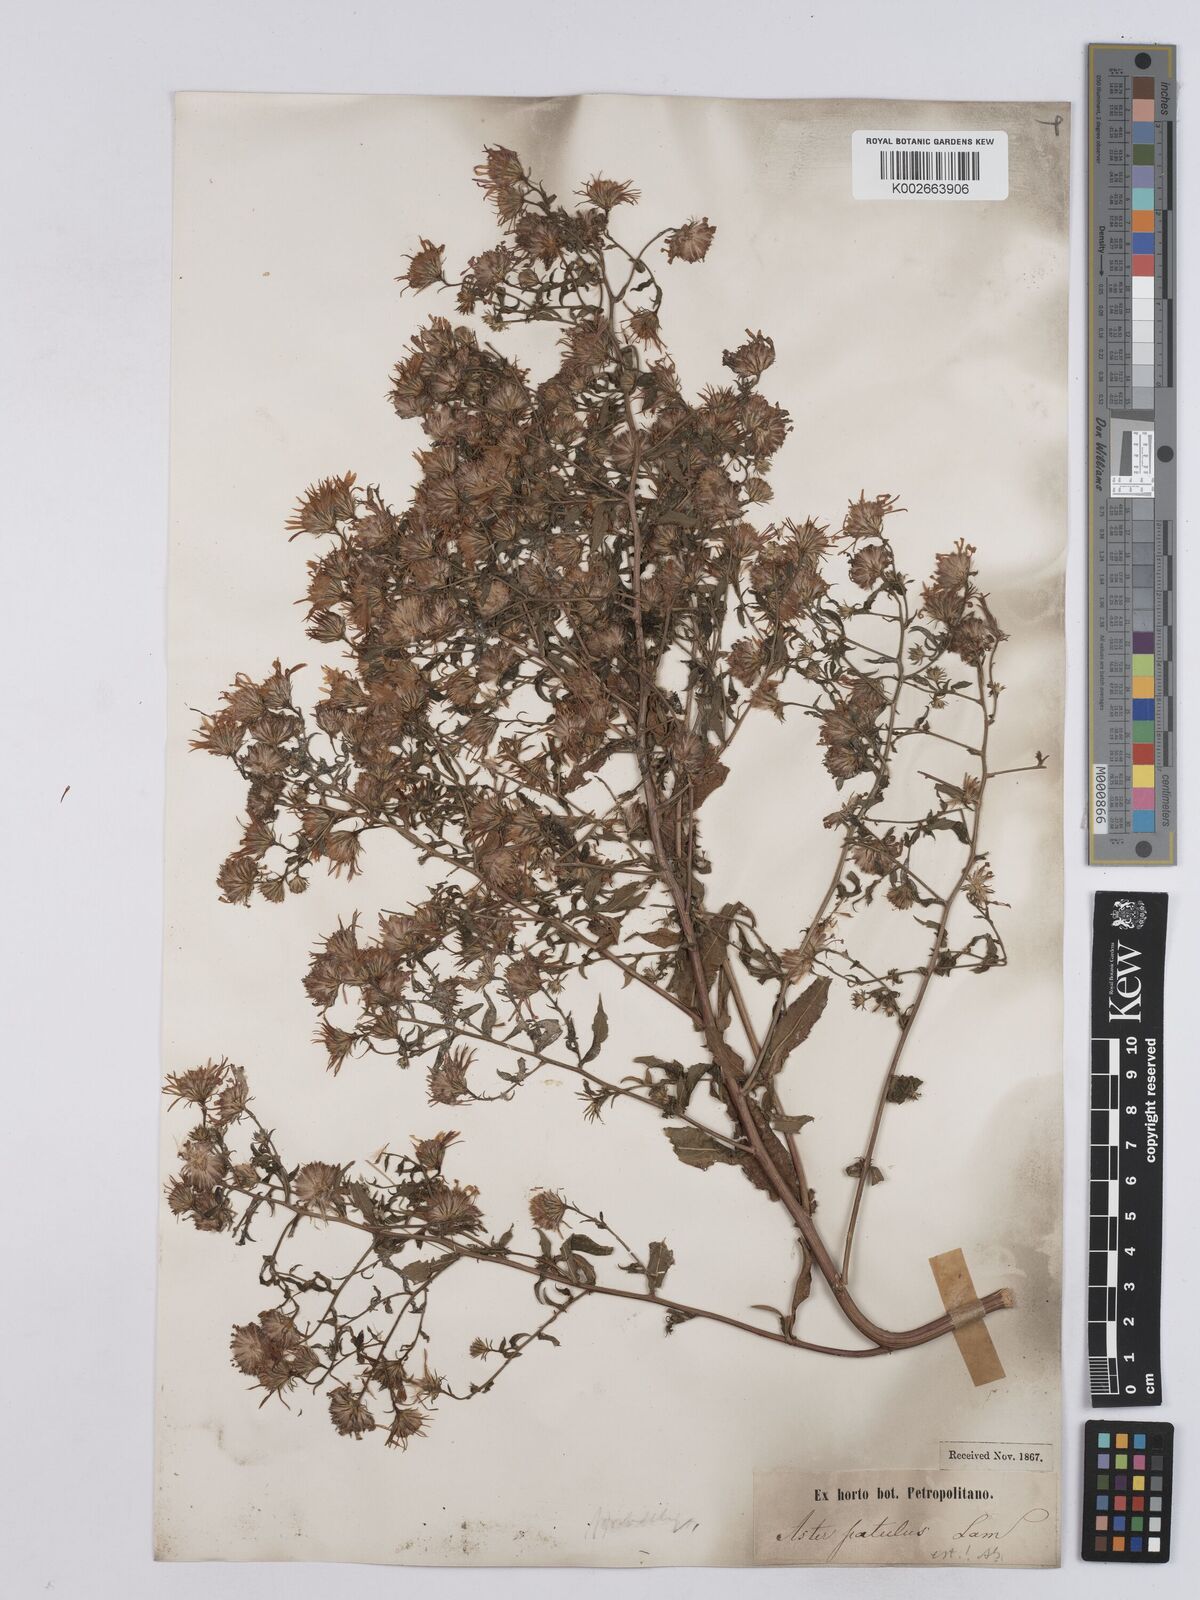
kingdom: Plantae
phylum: Tracheophyta
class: Magnoliopsida
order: Asterales
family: Asteraceae
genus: Symphyotrichum
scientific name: Symphyotrichum
